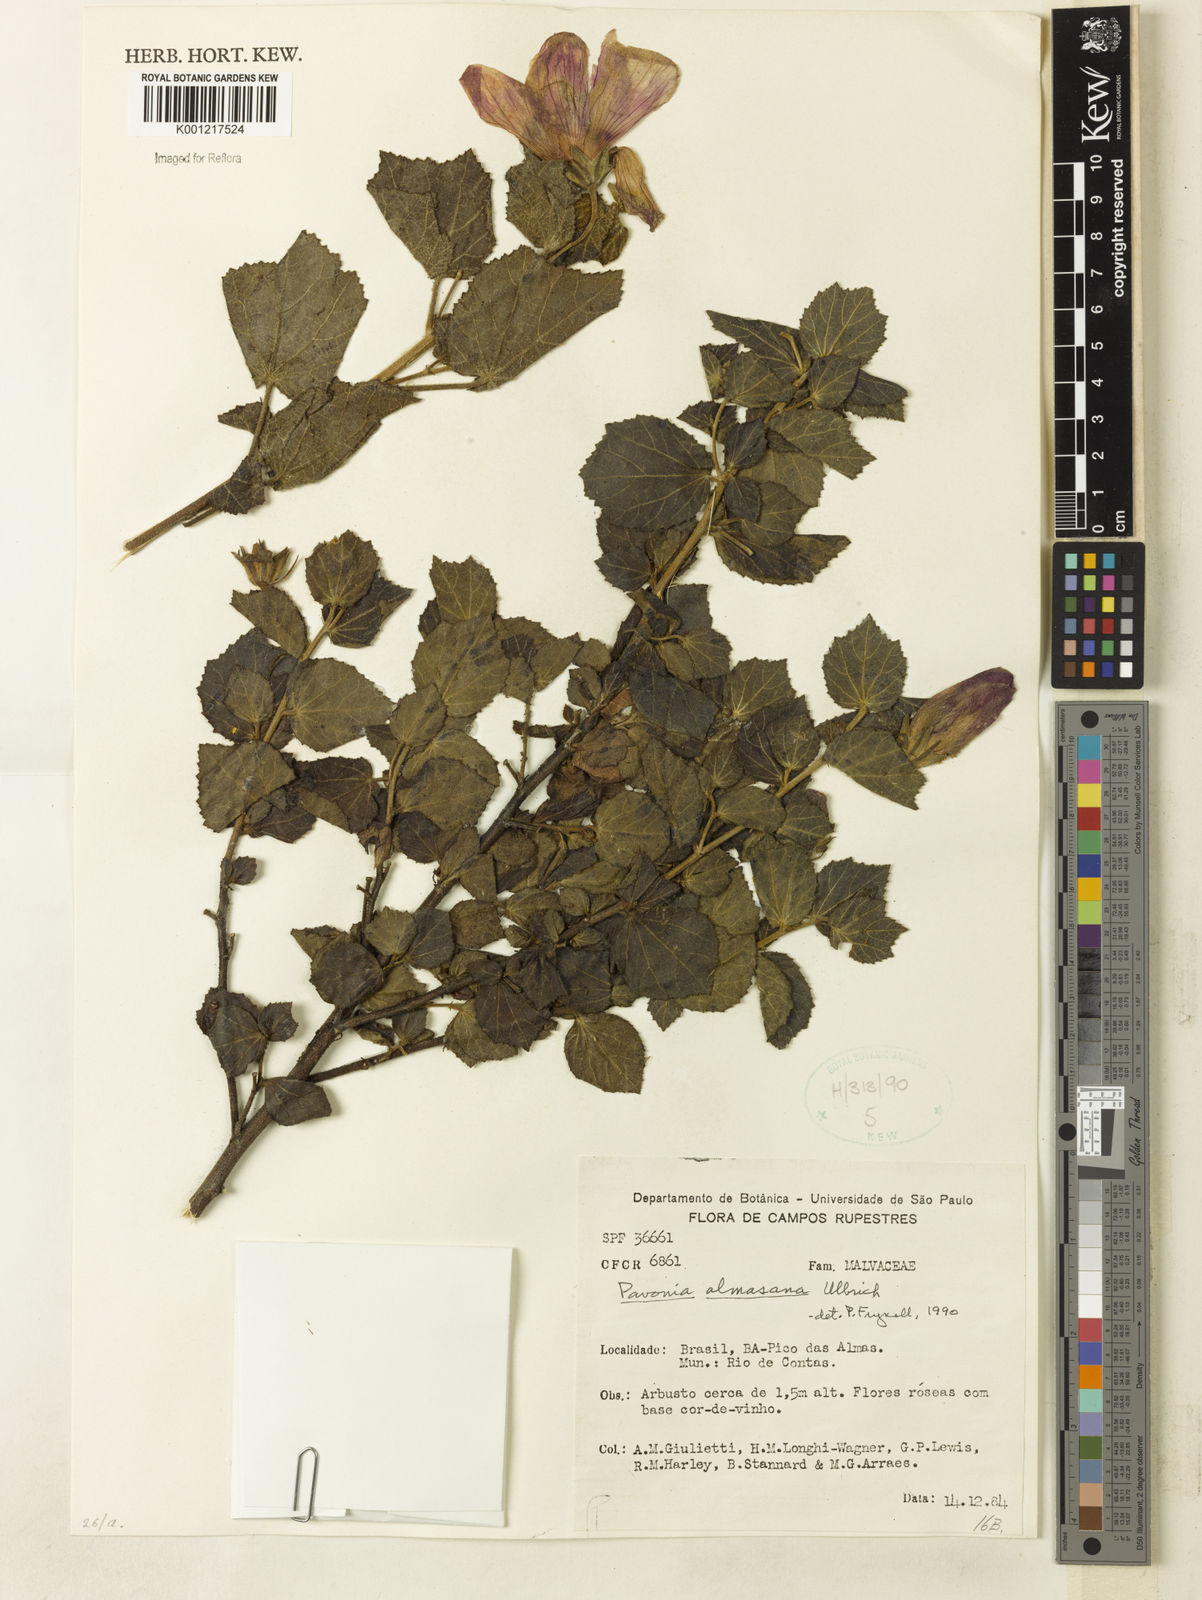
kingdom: Plantae
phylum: Tracheophyta
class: Magnoliopsida
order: Malvales
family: Malvaceae
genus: Pavonia
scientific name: Pavonia almasana
